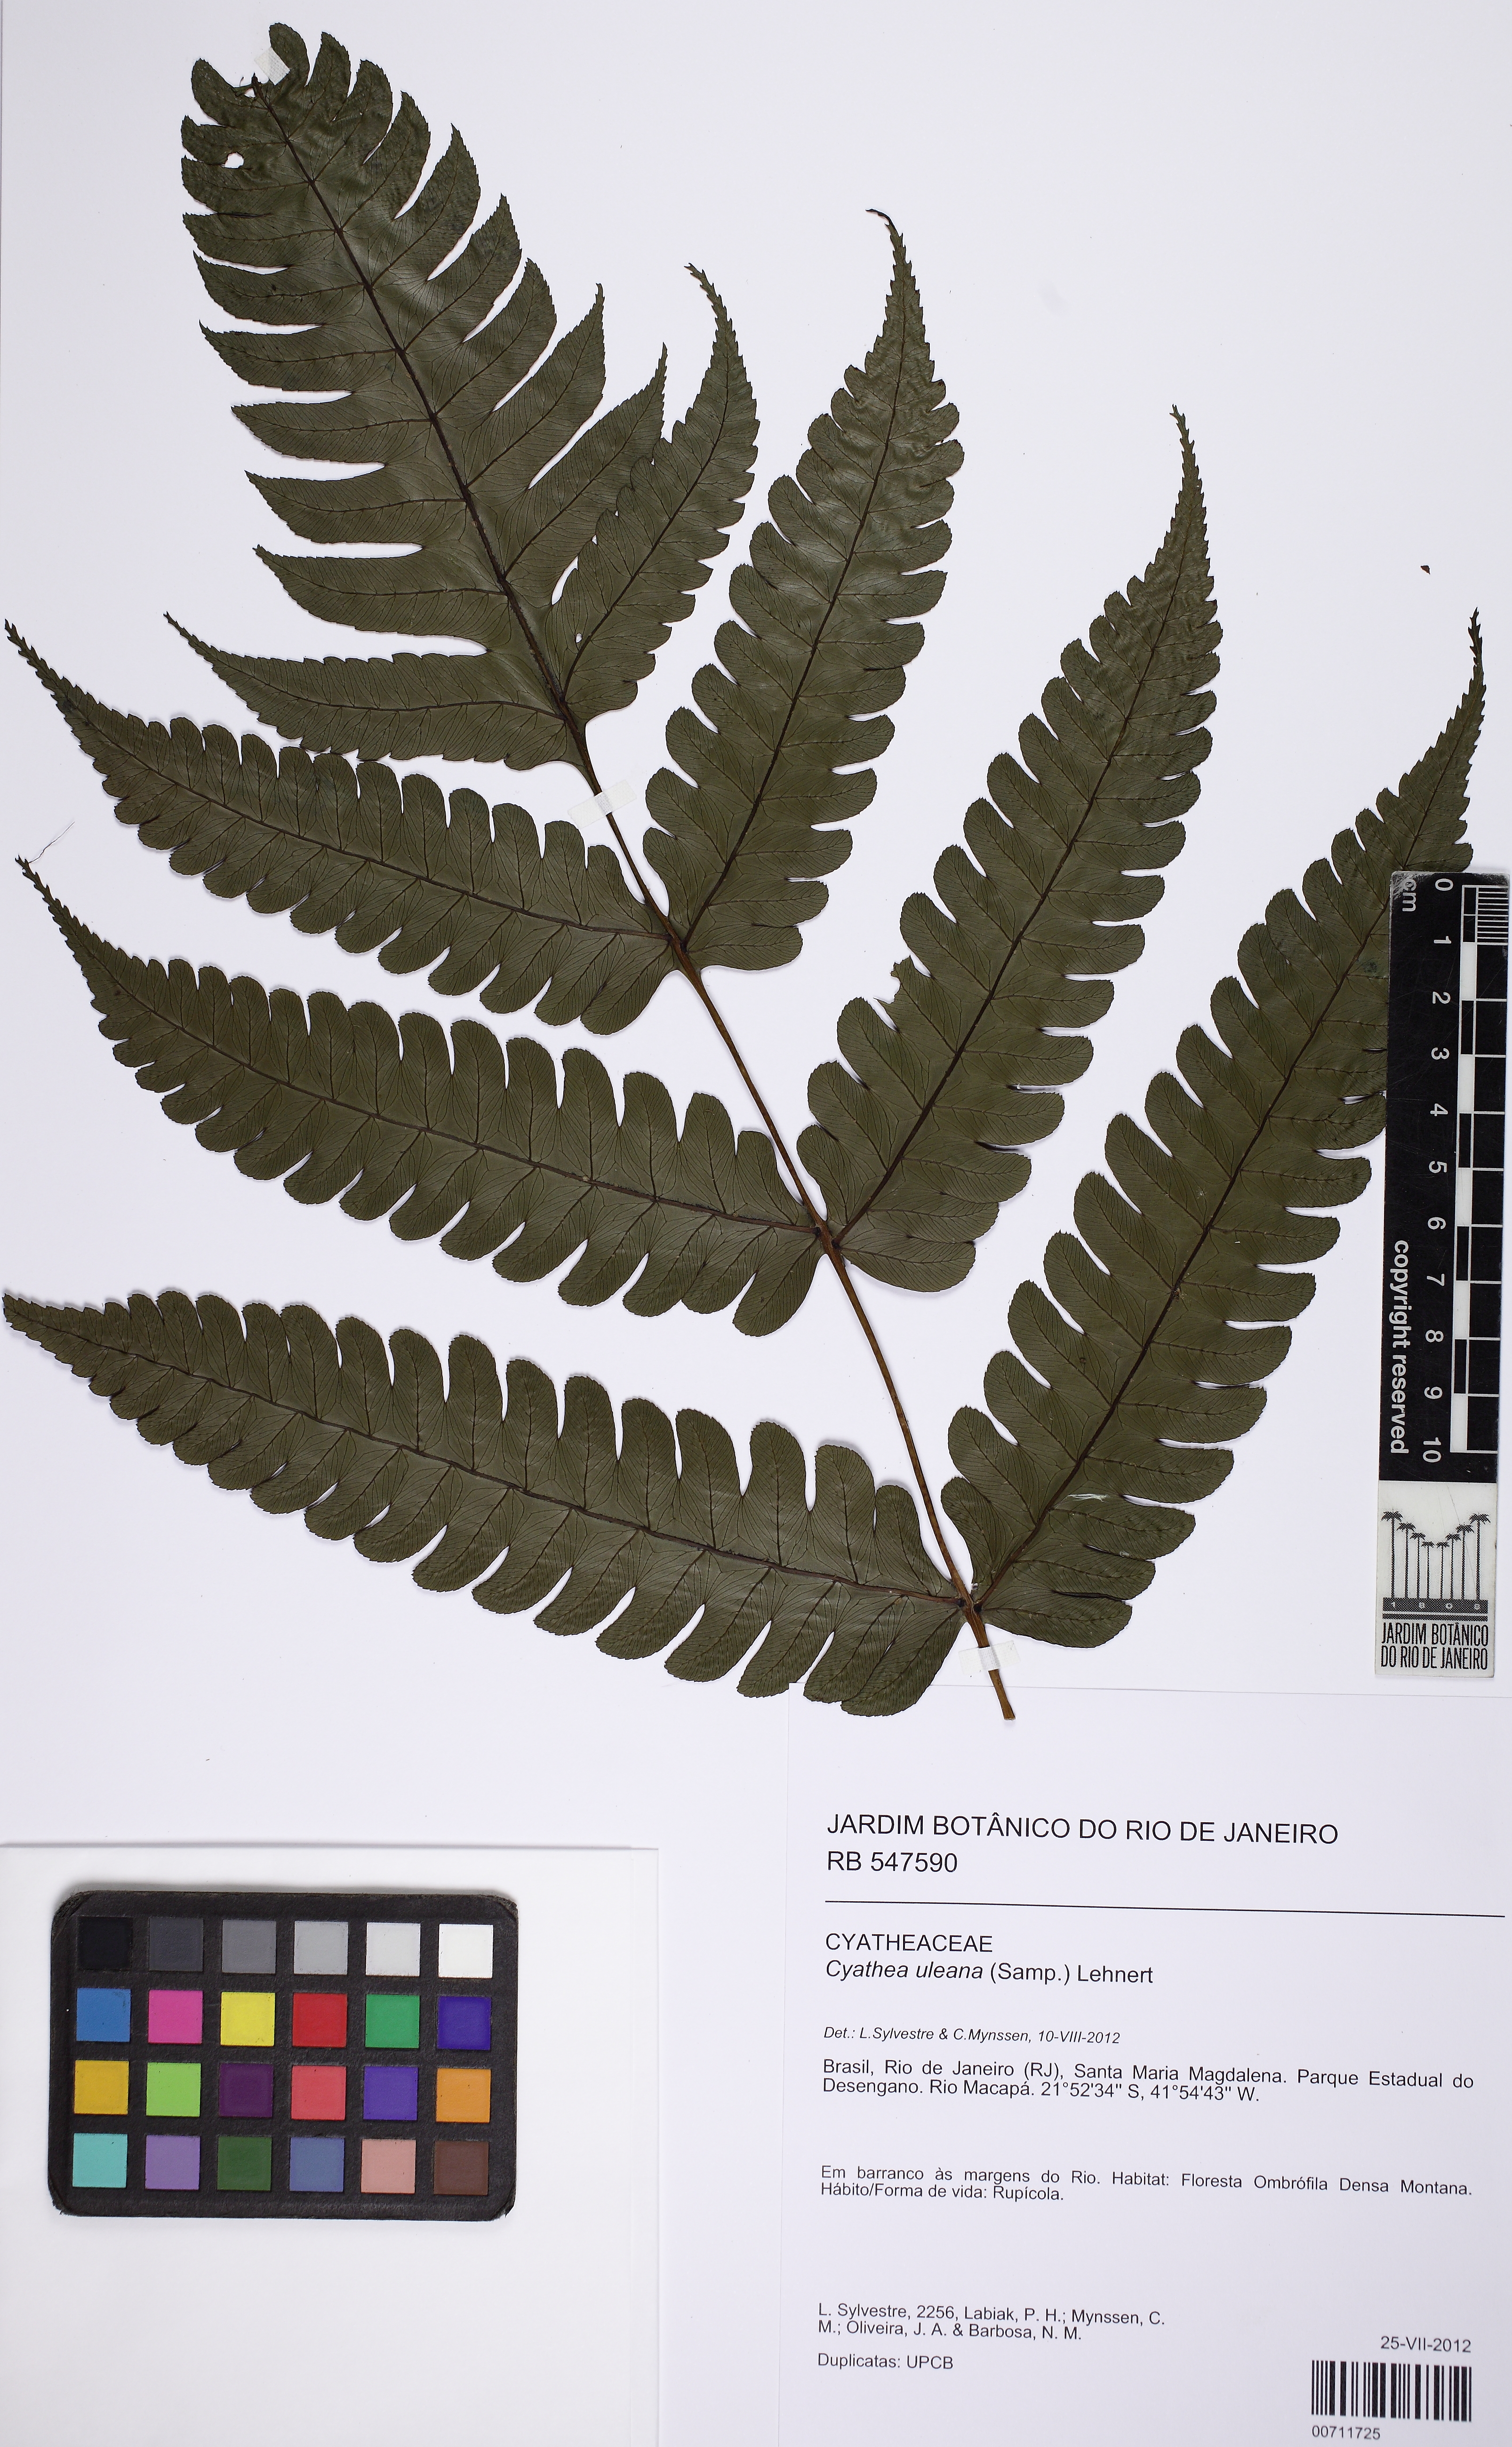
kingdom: Plantae
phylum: Tracheophyta
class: Polypodiopsida
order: Cyatheales
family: Cyatheaceae
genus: Cyathea
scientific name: Cyathea uleana
